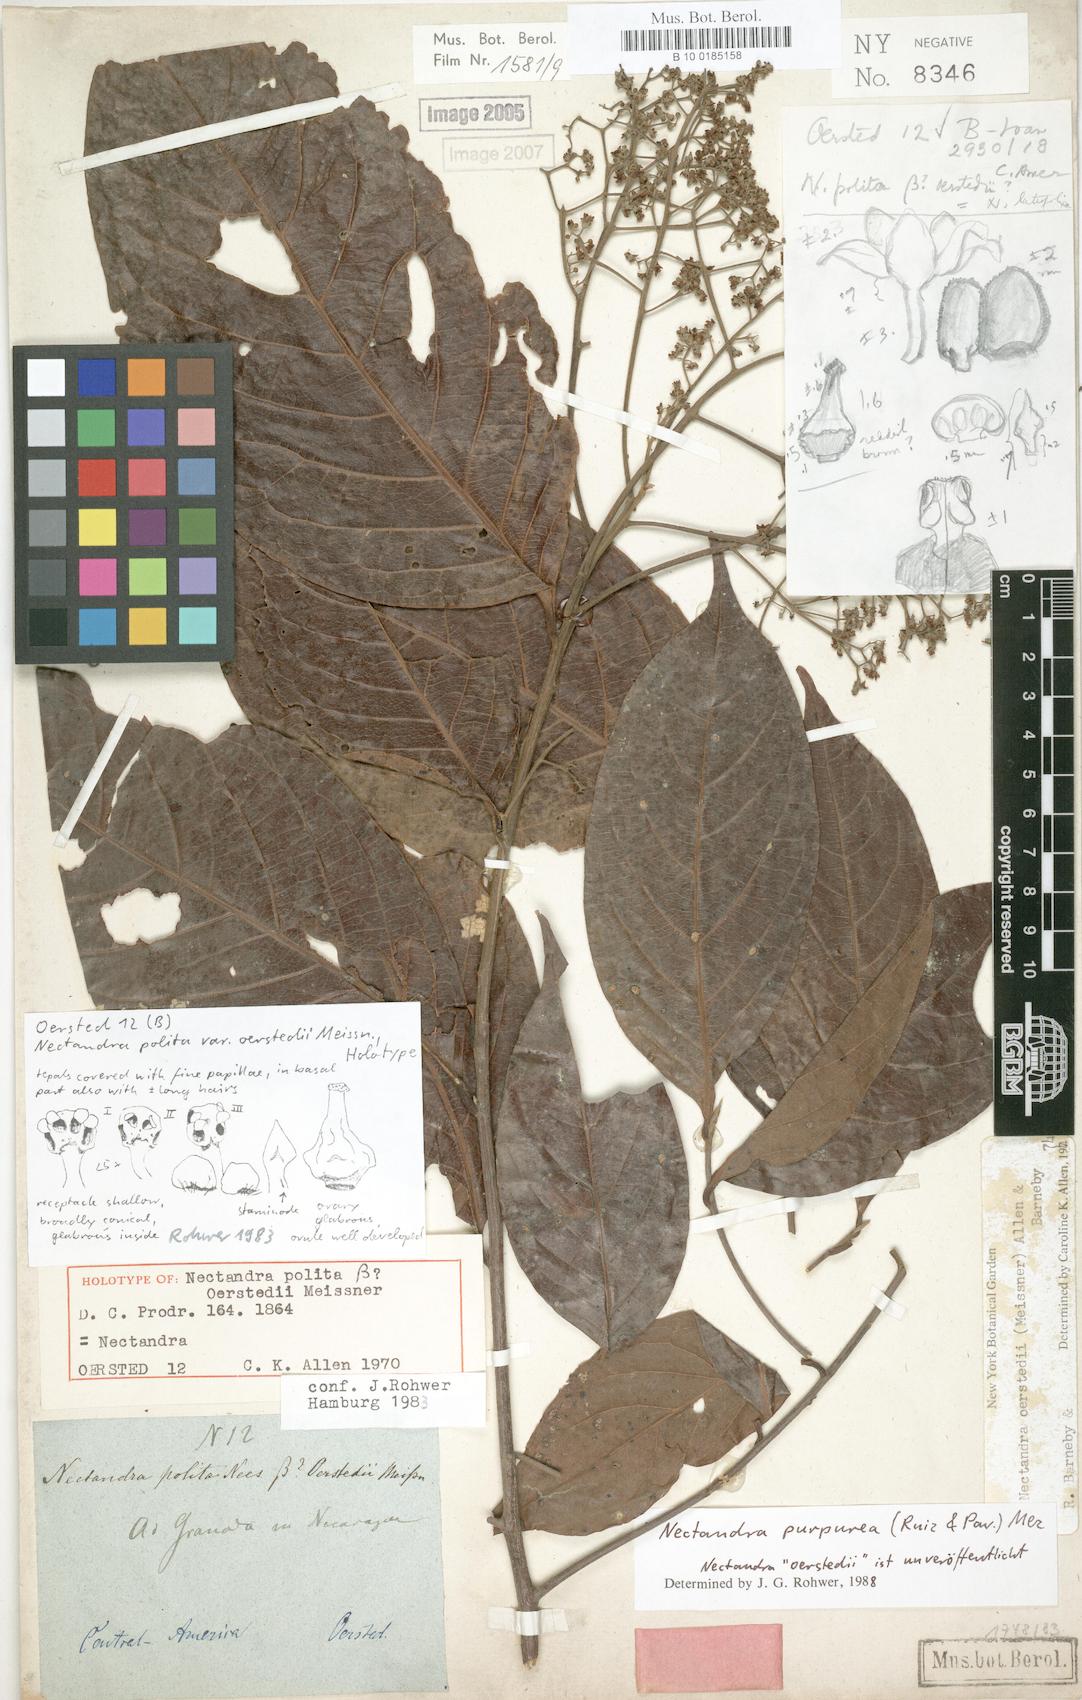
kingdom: Plantae
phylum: Tracheophyta
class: Magnoliopsida
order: Laurales
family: Lauraceae
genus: Damburneya
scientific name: Damburneya purpurea
